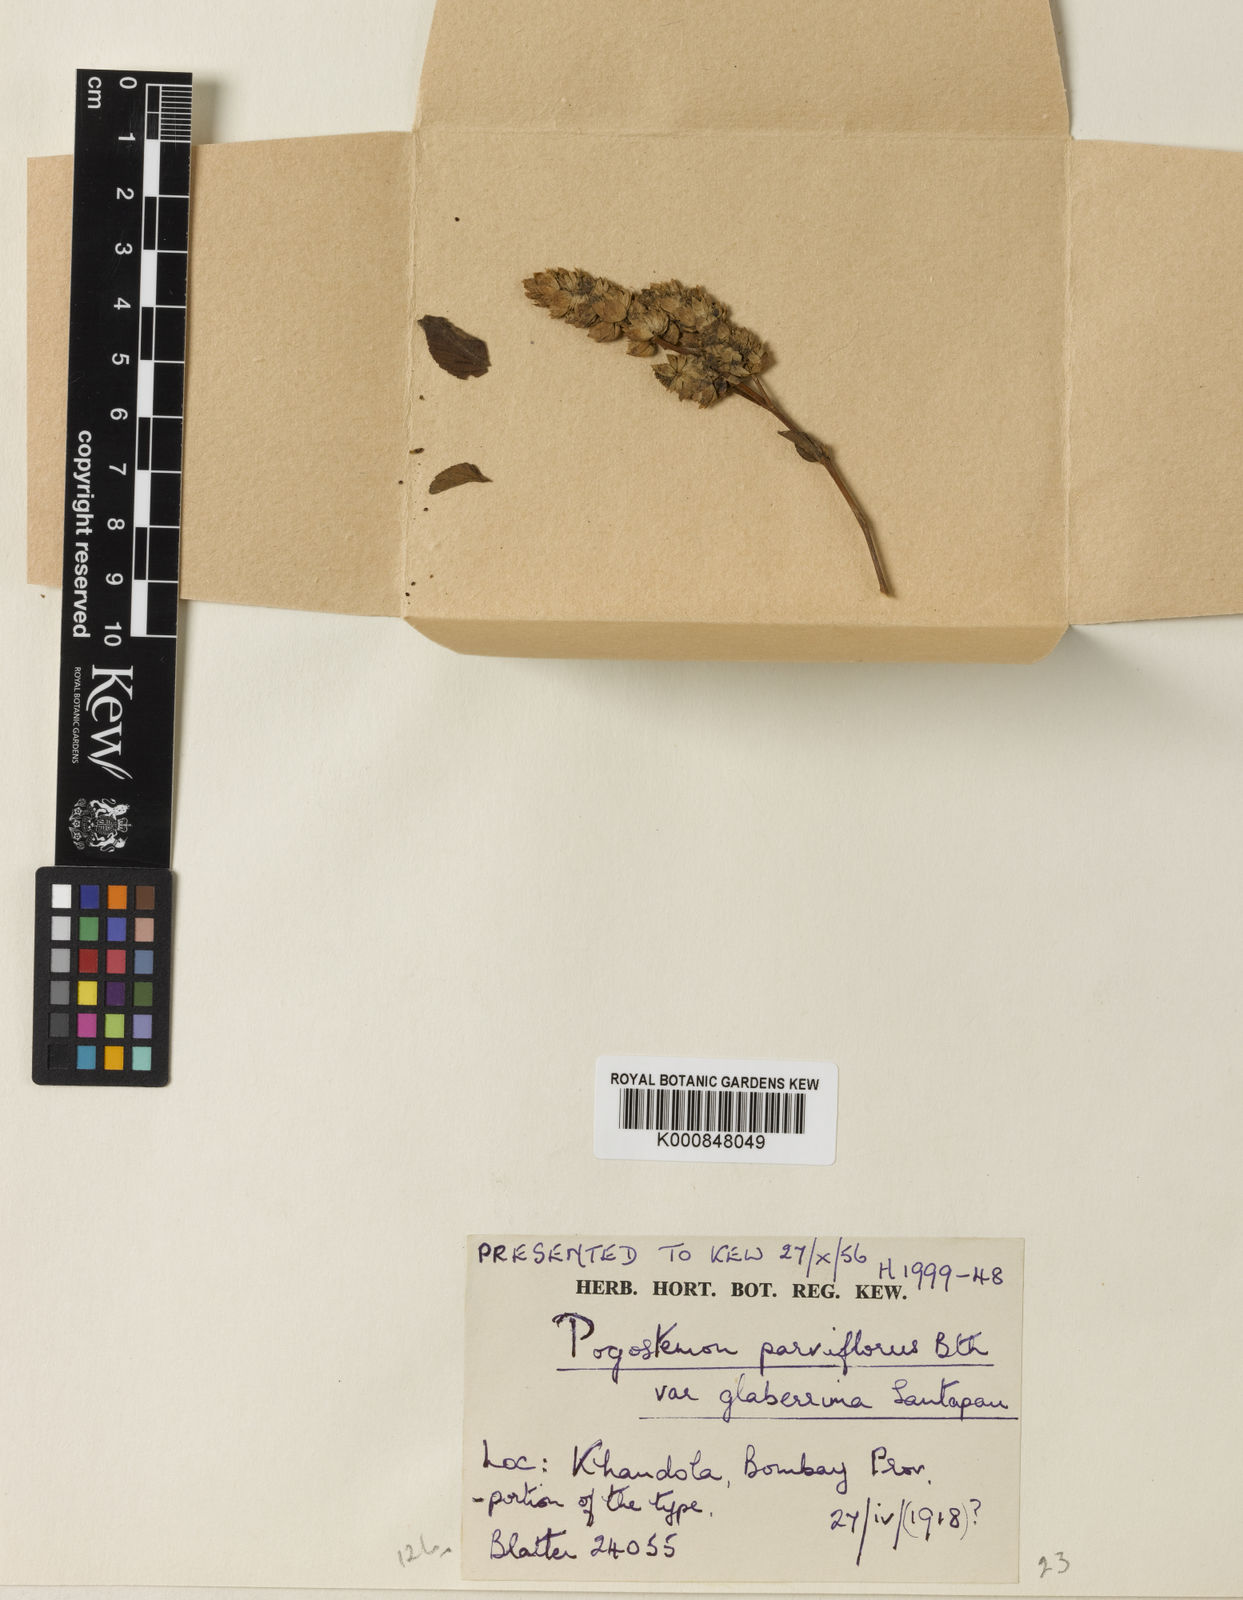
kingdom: Plantae
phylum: Tracheophyta
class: Magnoliopsida
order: Lamiales
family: Lamiaceae
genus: Pogostemon
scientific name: Pogostemon
